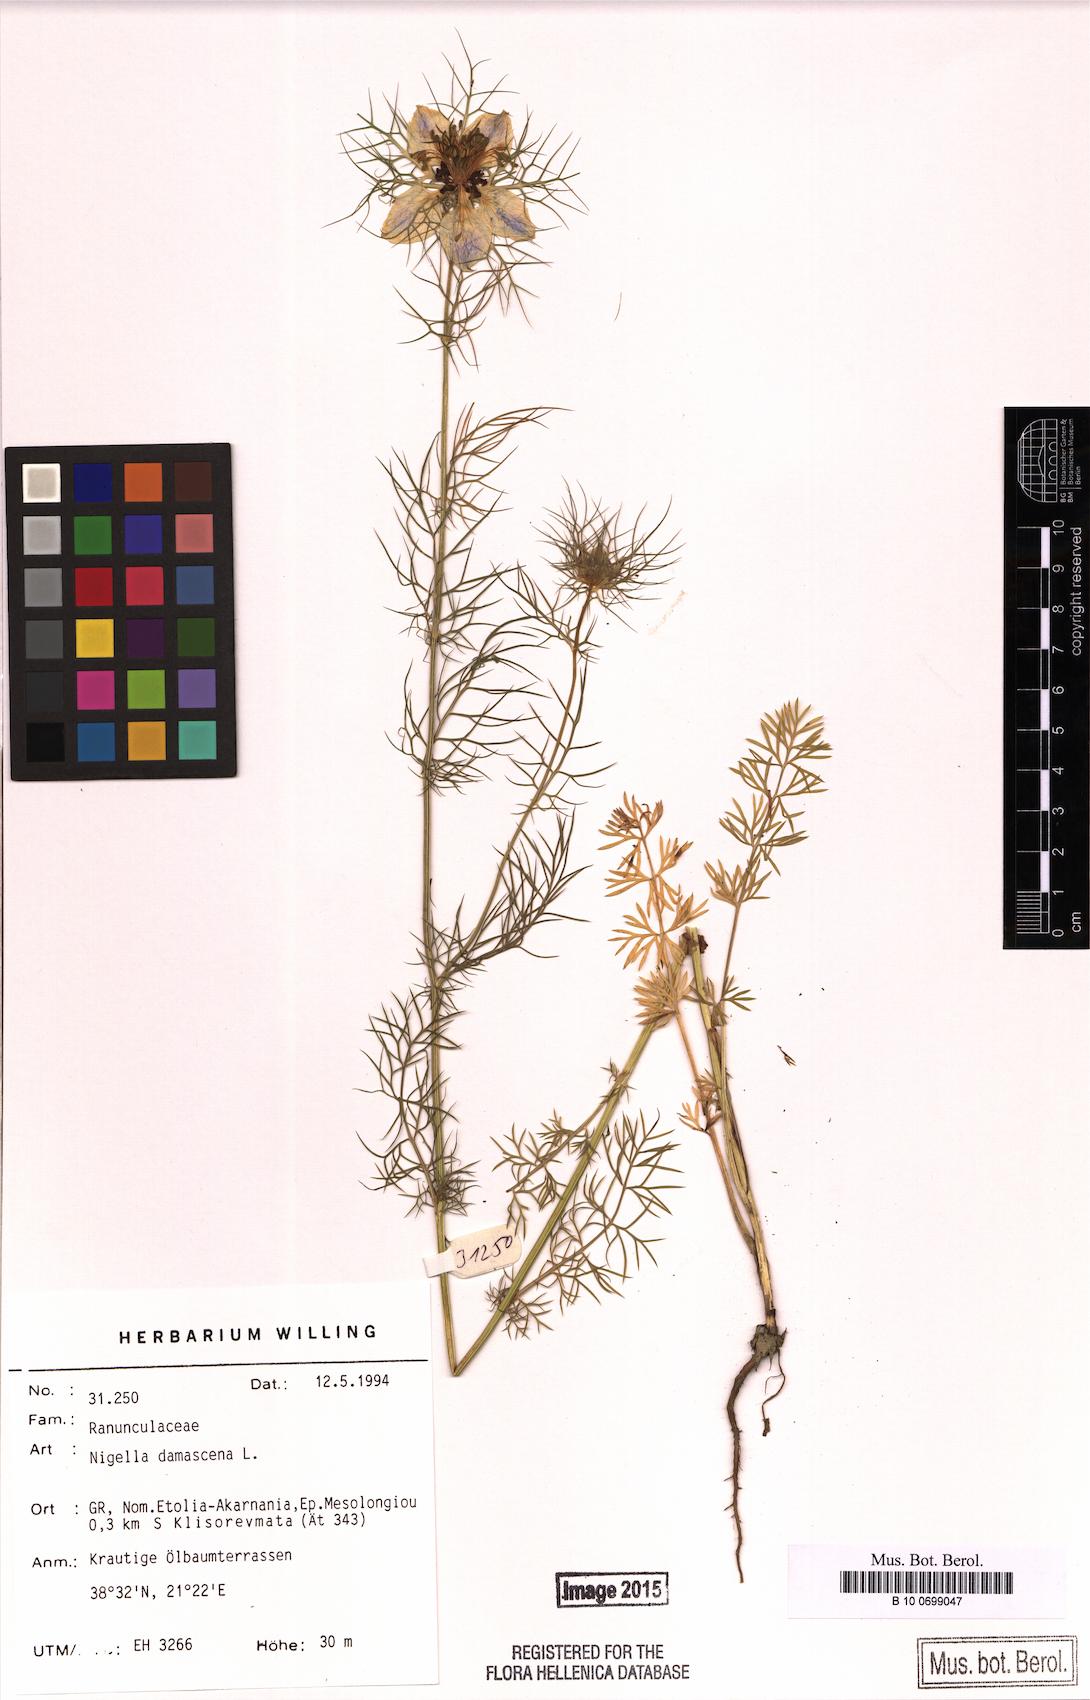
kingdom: Plantae
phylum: Tracheophyta
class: Magnoliopsida
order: Ranunculales
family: Ranunculaceae
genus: Nigella
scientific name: Nigella damascena
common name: Love-in-a-mist
